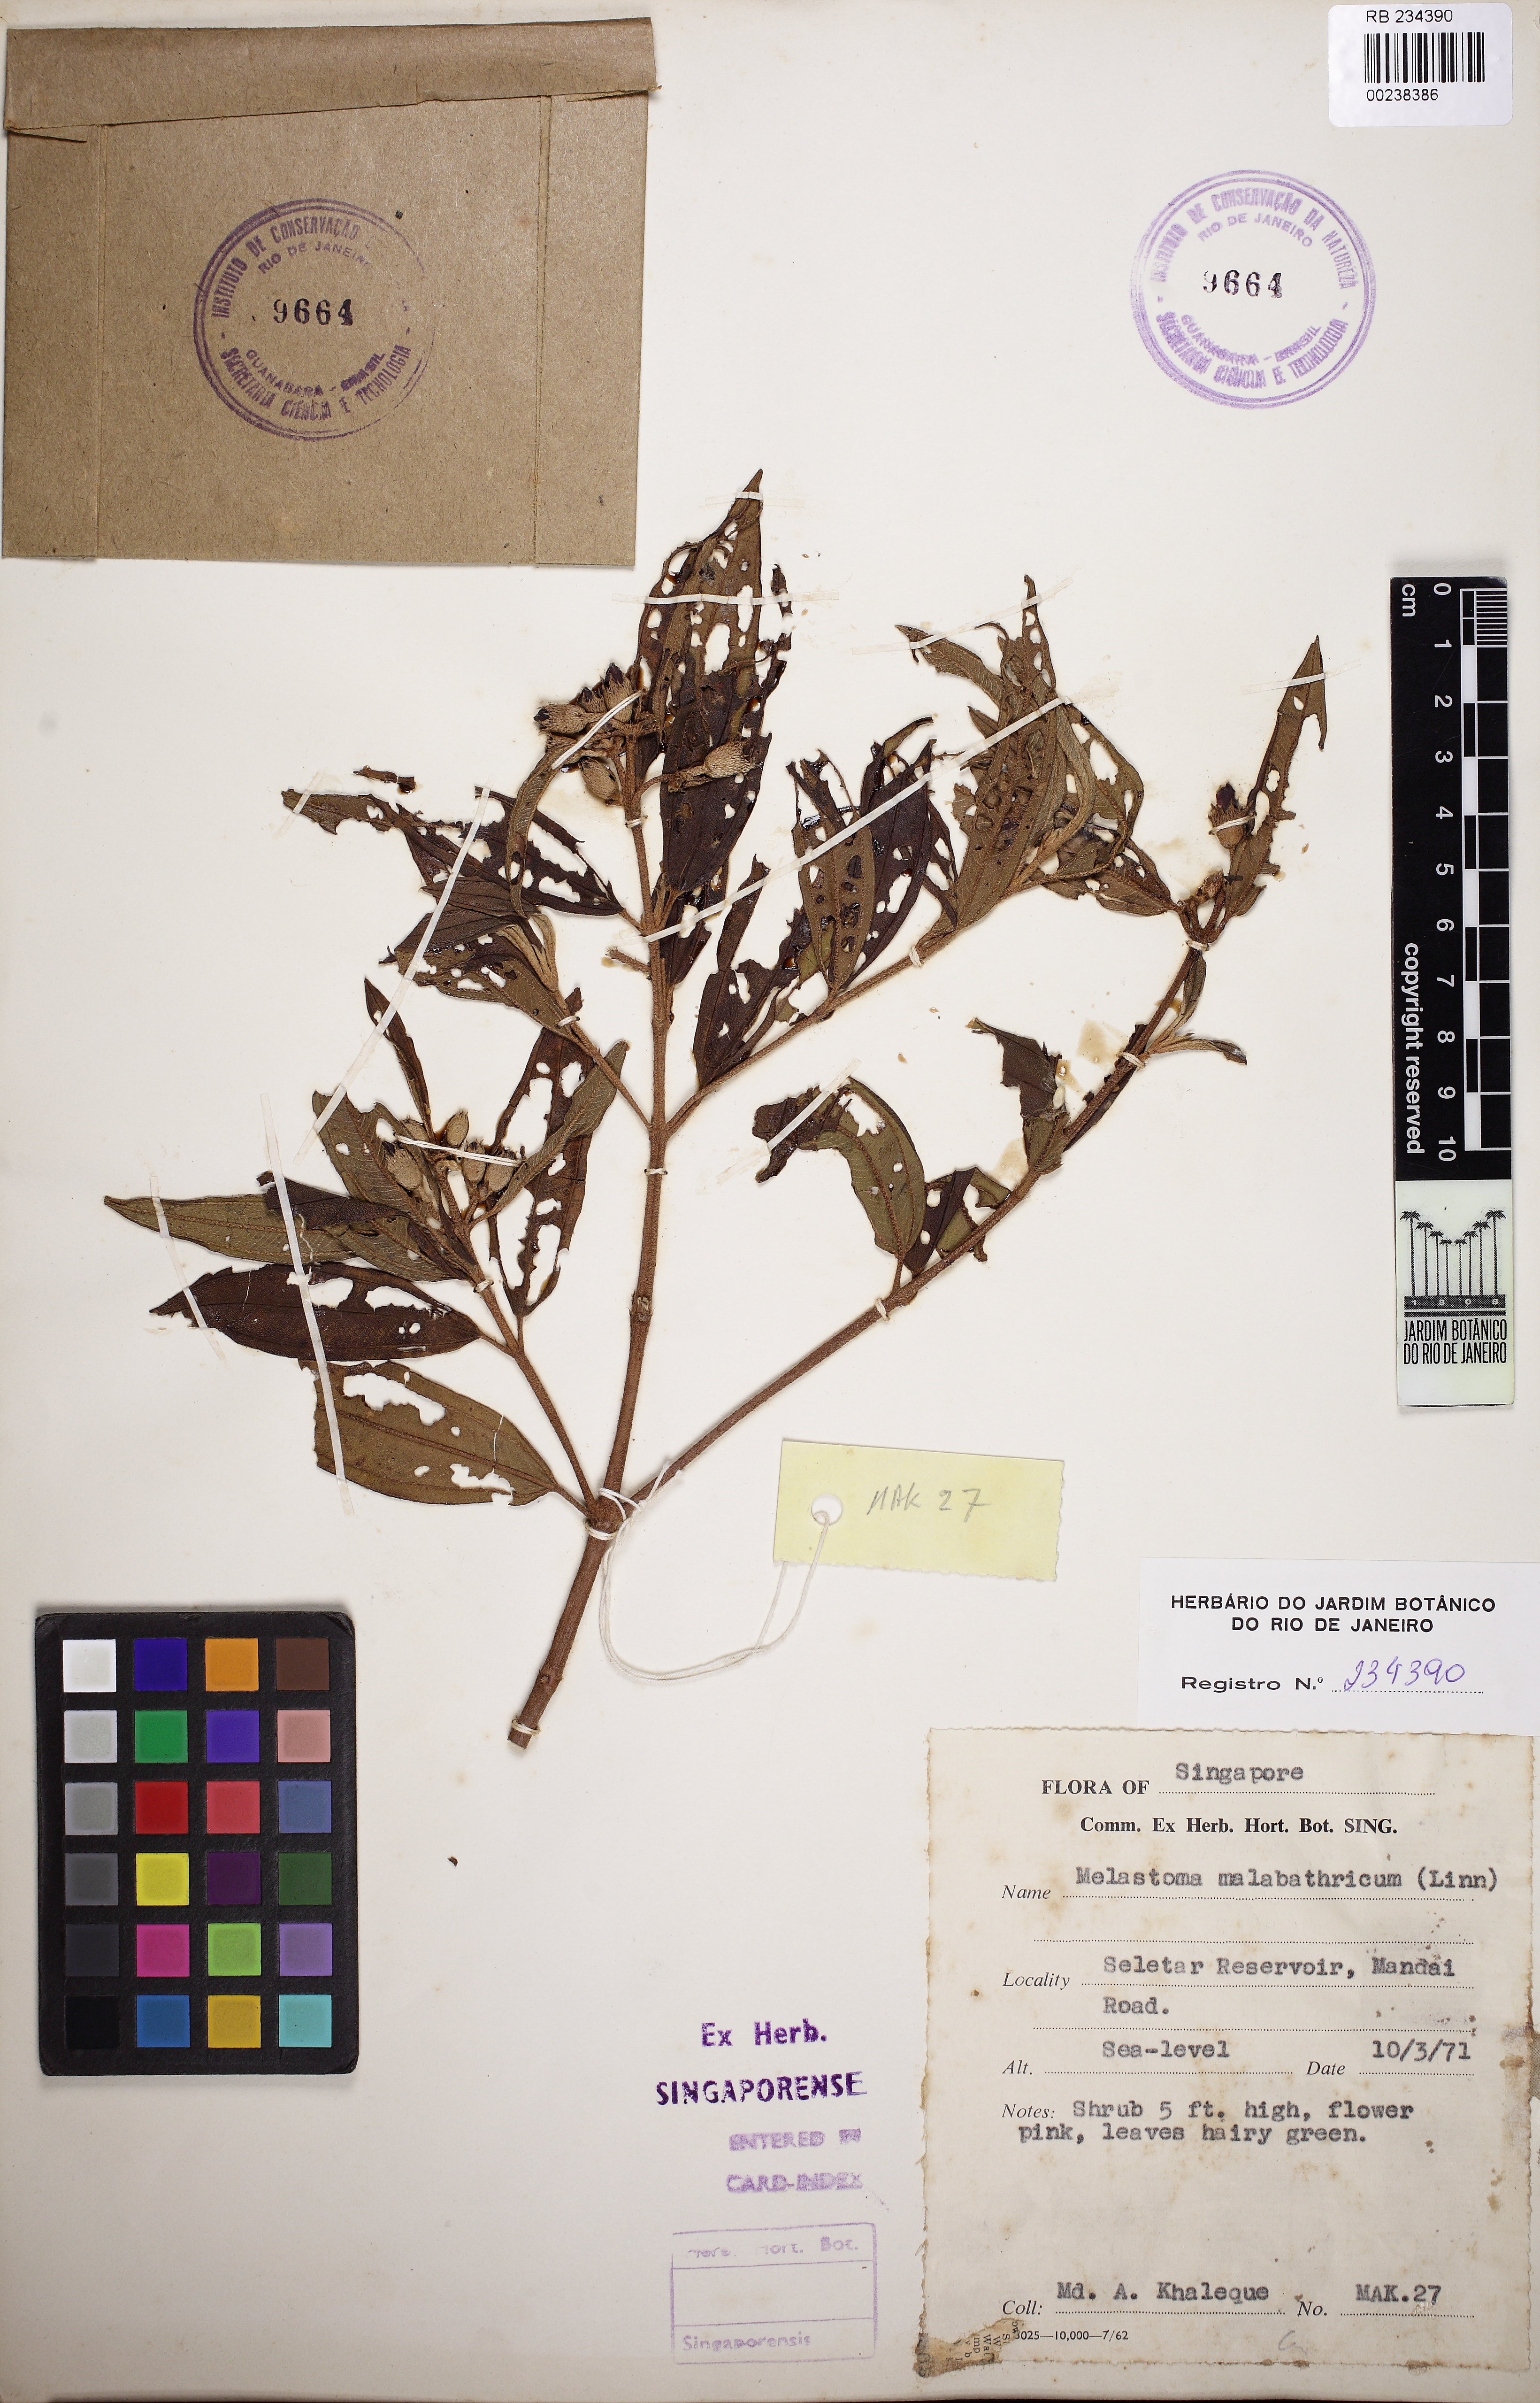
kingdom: Plantae
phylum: Tracheophyta
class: Magnoliopsida
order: Myrtales
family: Melastomataceae
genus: Melastoma
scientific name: Melastoma malabathricum
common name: Indian-rhododendron
